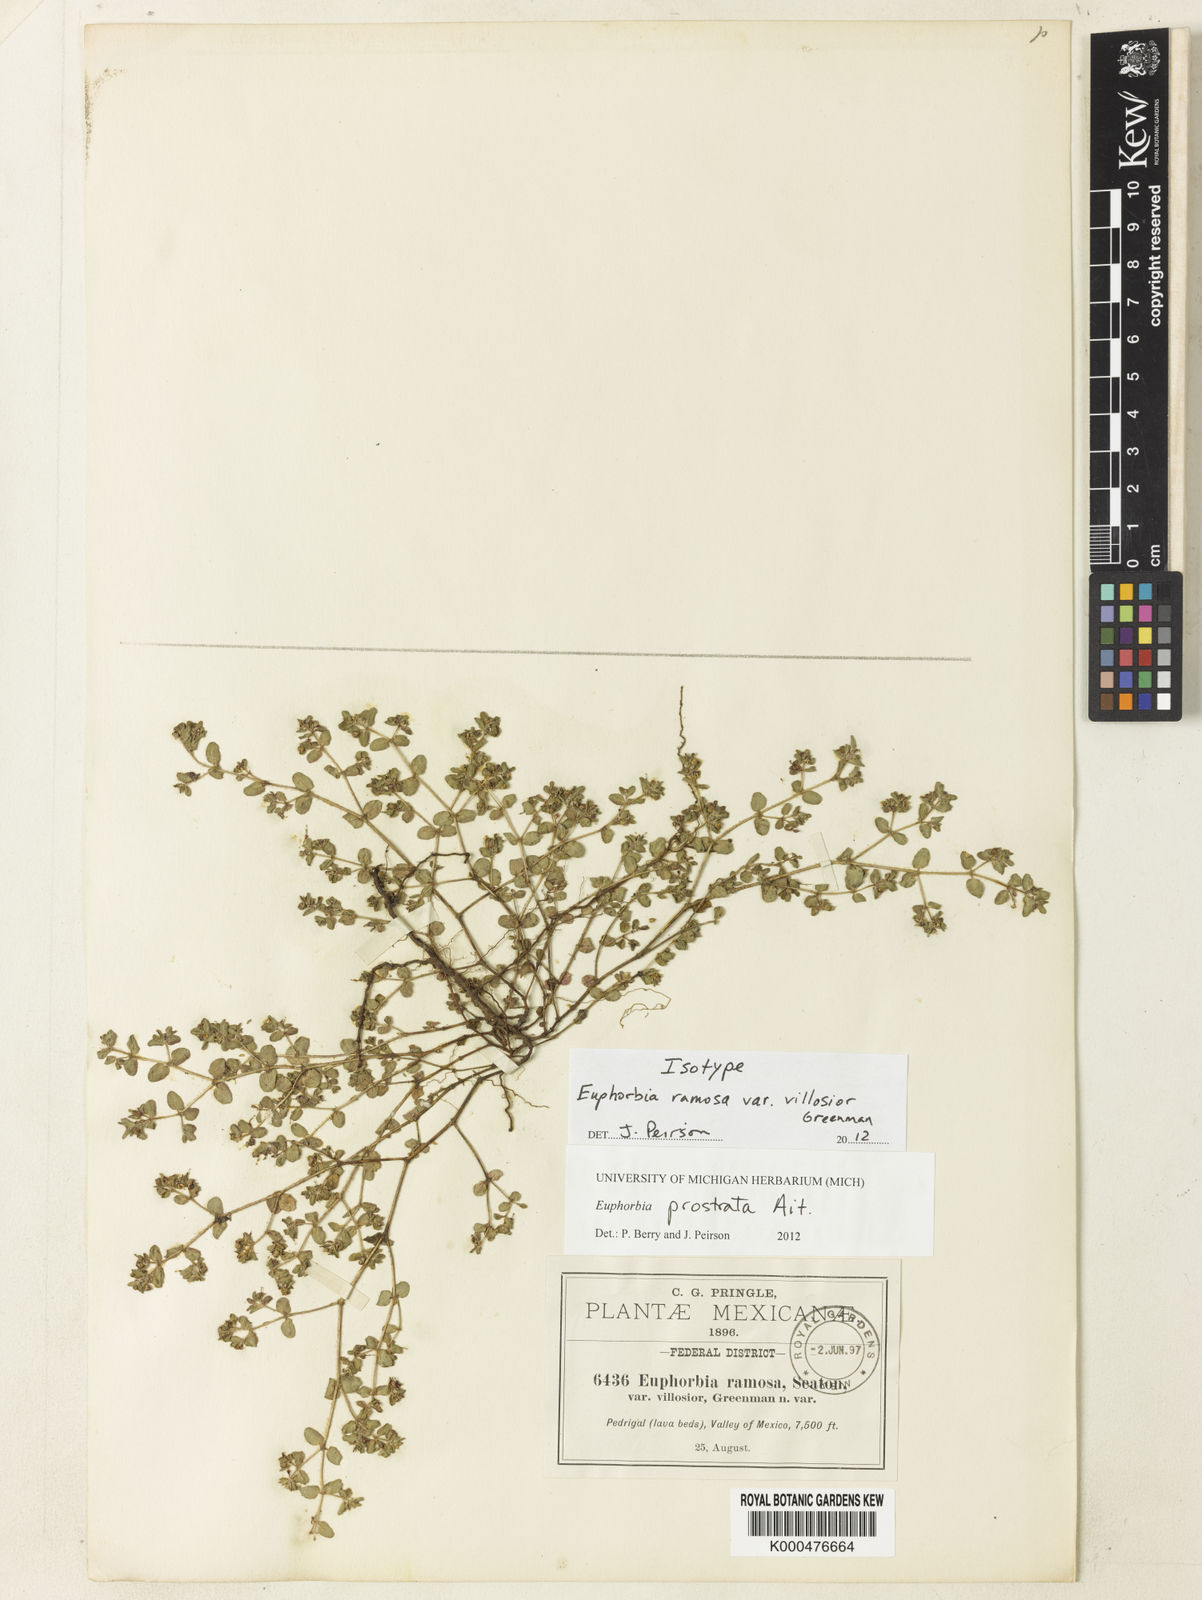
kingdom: Plantae
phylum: Tracheophyta
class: Magnoliopsida
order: Malpighiales
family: Euphorbiaceae
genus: Euphorbia
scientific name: Euphorbia prostrata
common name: Prostrate sandmat
